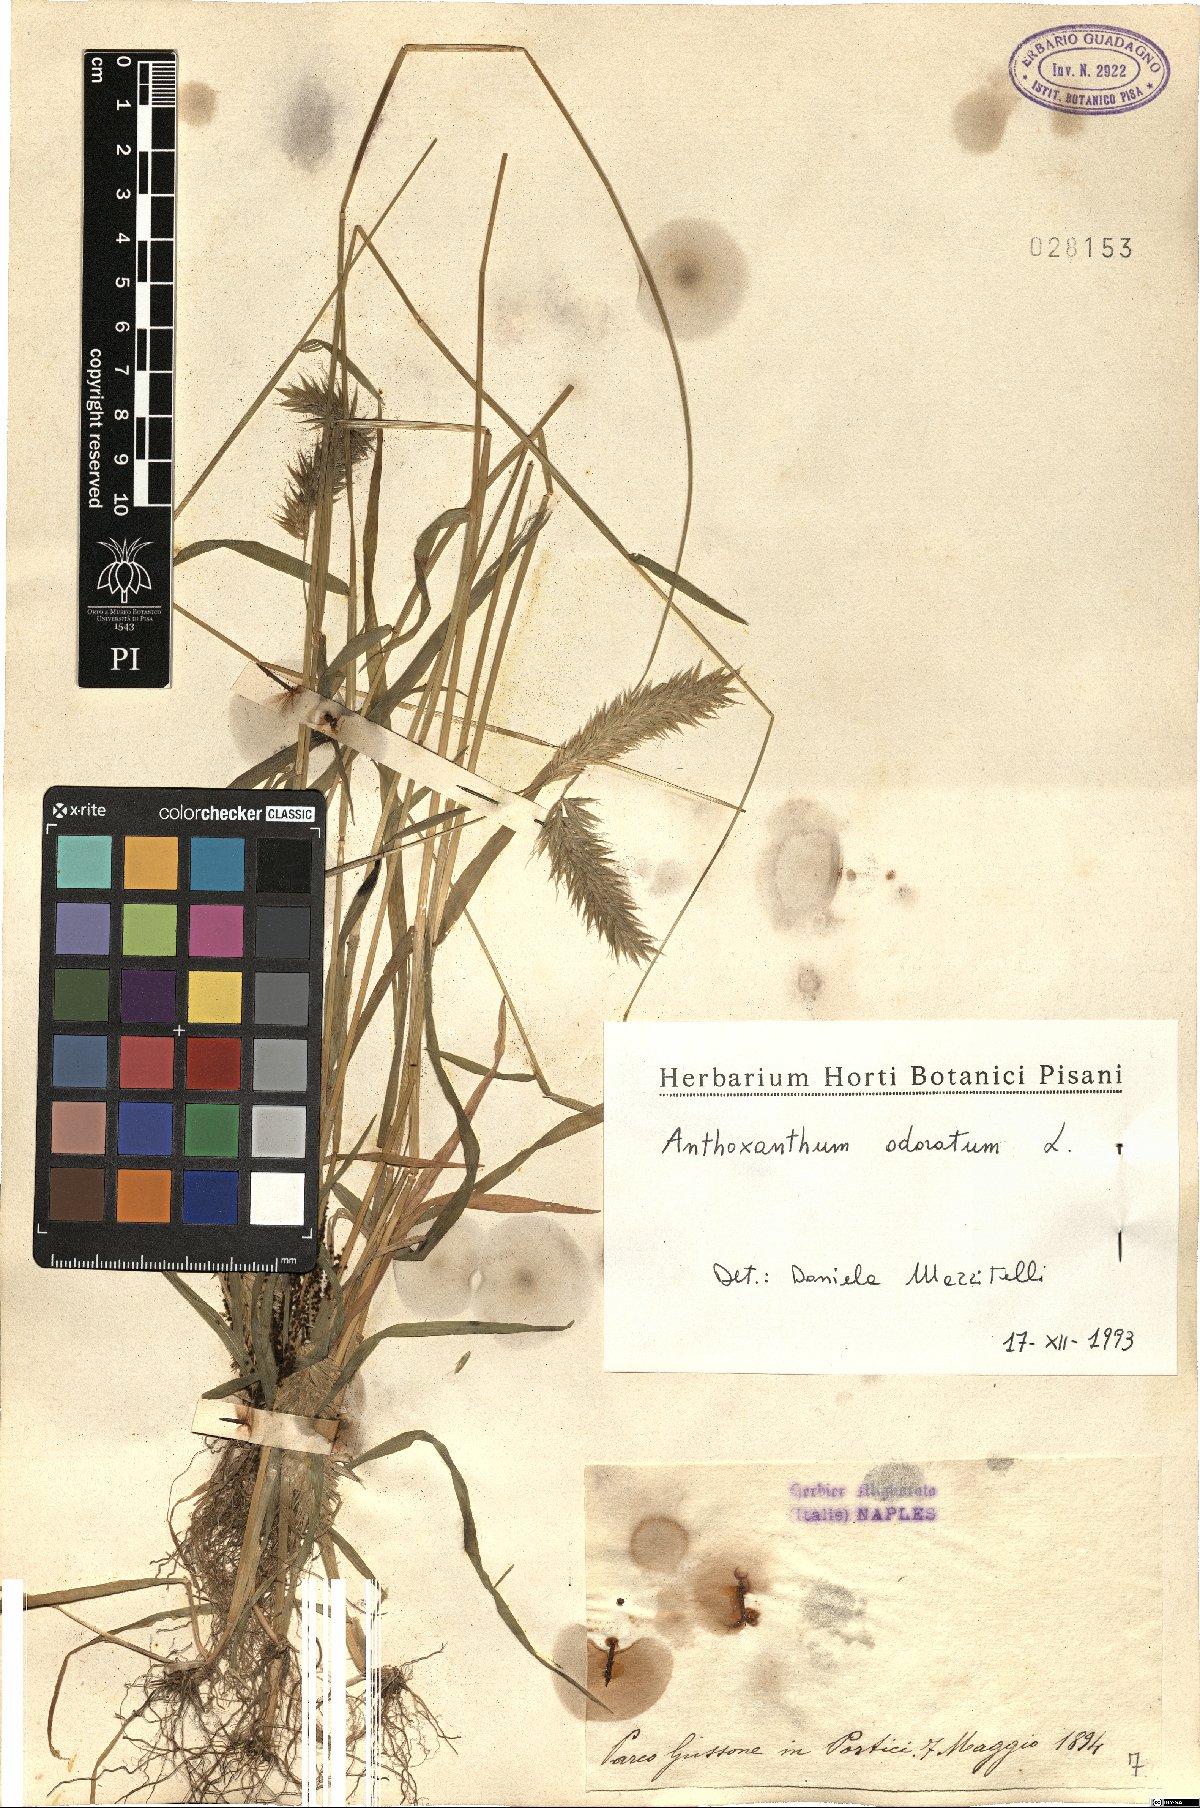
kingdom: Plantae
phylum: Tracheophyta
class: Liliopsida
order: Poales
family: Poaceae
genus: Anthoxanthum
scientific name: Anthoxanthum odoratum
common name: Sweet vernalgrass
